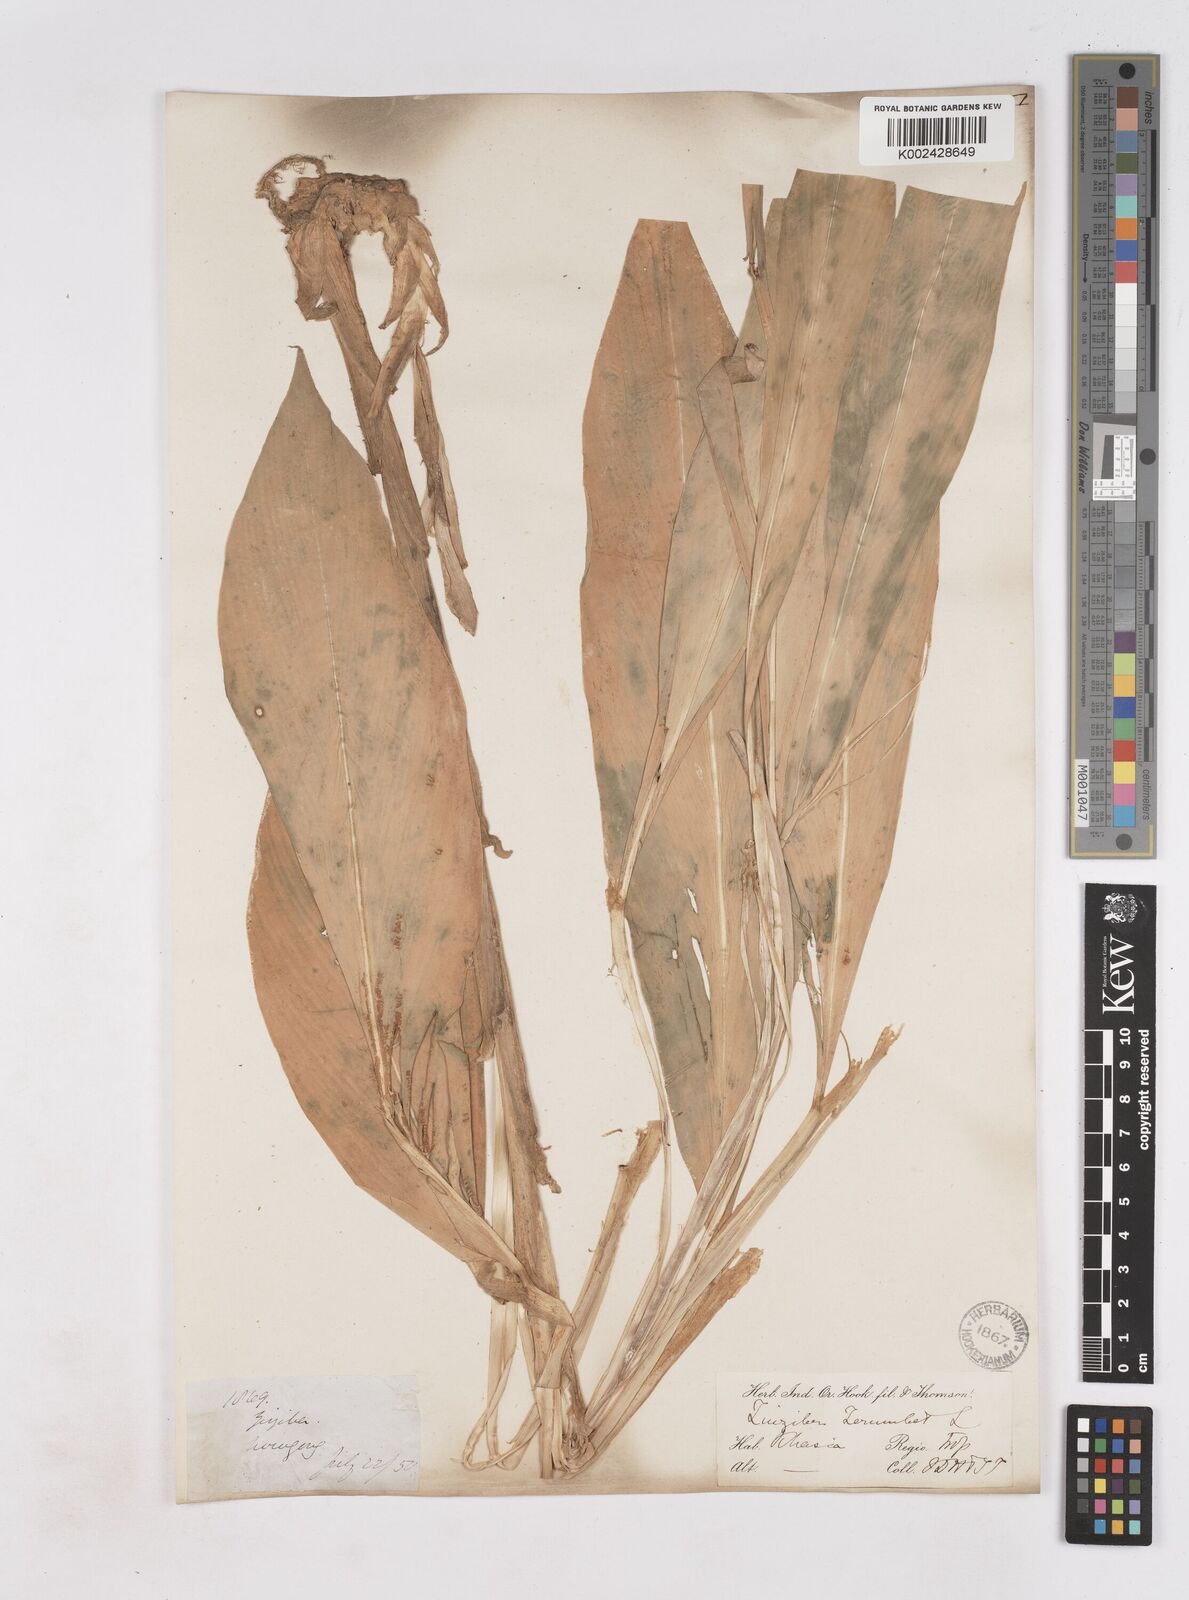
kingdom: Plantae
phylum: Tracheophyta
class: Liliopsida
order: Zingiberales
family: Zingiberaceae
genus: Zingiber
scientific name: Zingiber zerumbet
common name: Bitter ginger
